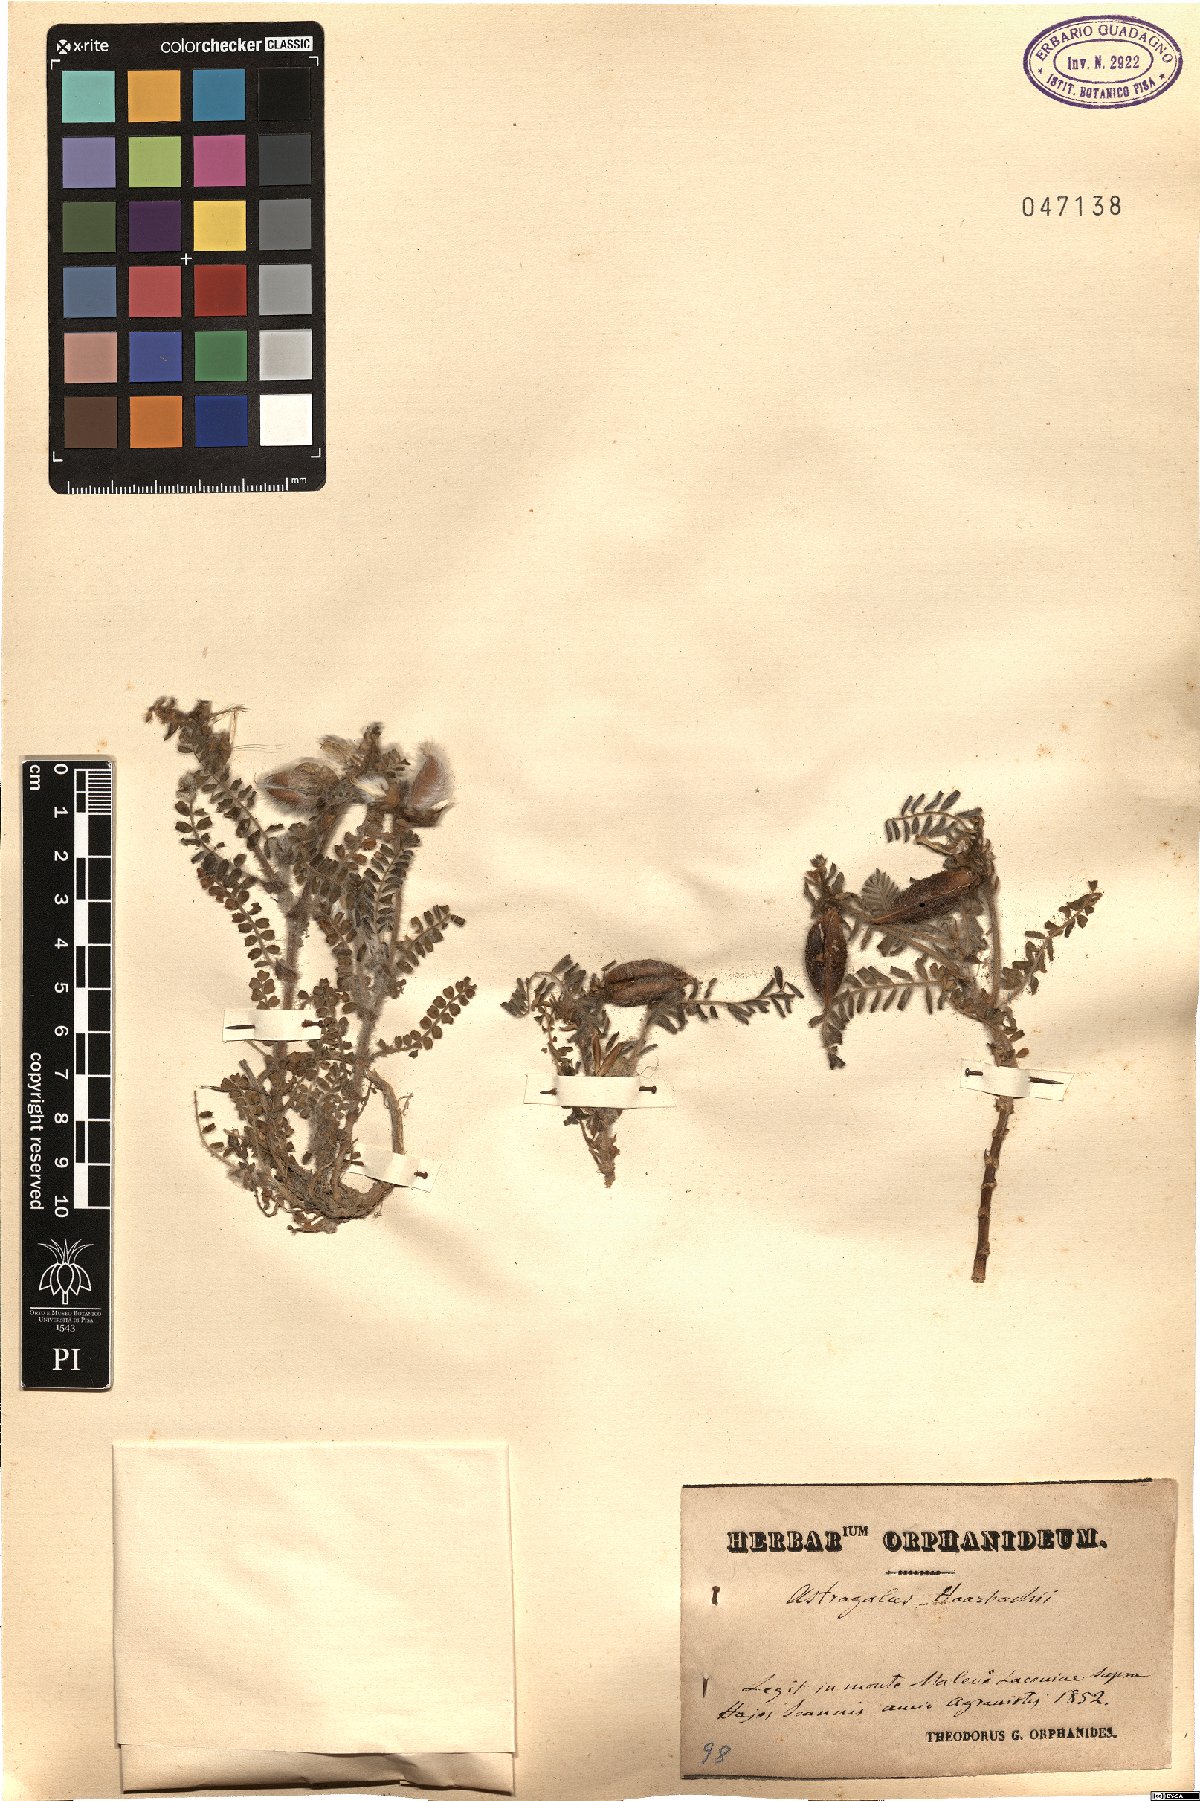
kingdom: Plantae
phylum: Tracheophyta
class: Magnoliopsida
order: Fabales
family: Fabaceae
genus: Astragalus
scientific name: Astragalus suberosus
